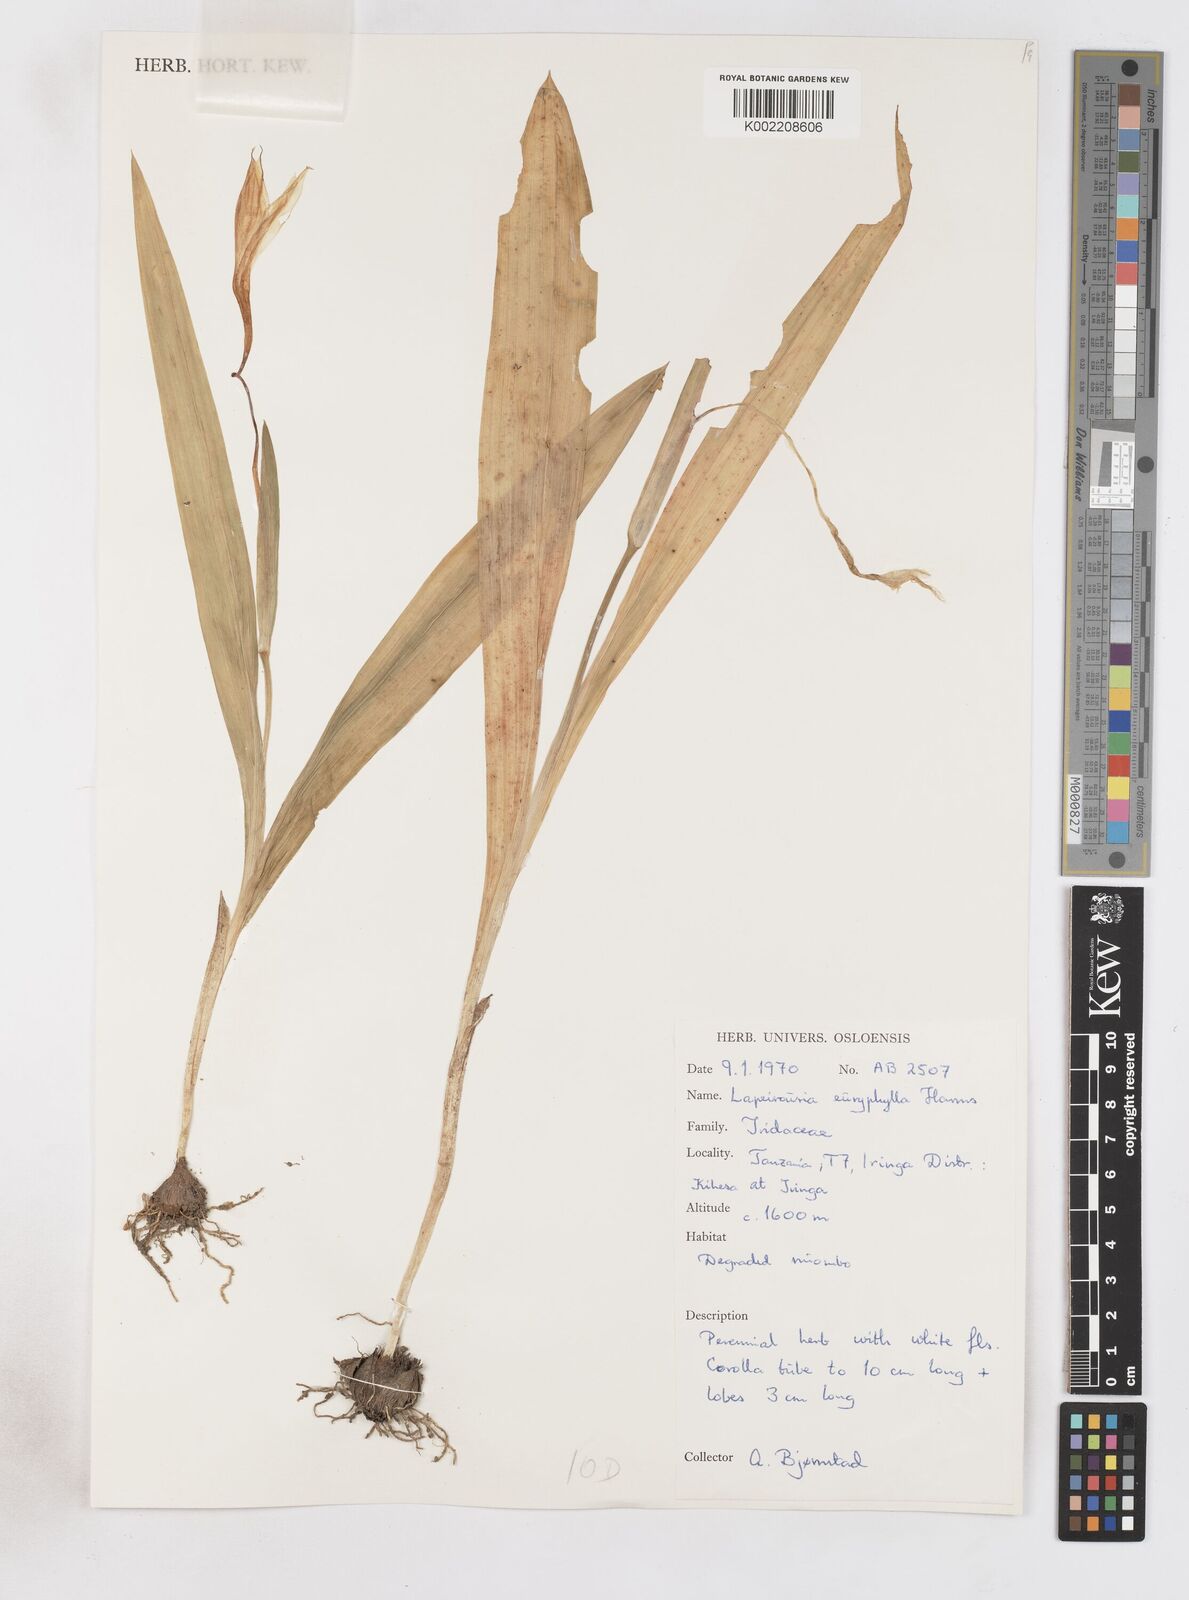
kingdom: Plantae
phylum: Tracheophyta
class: Liliopsida
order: Asparagales
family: Iridaceae
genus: Savannosiphon
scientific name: Savannosiphon euryphylla
